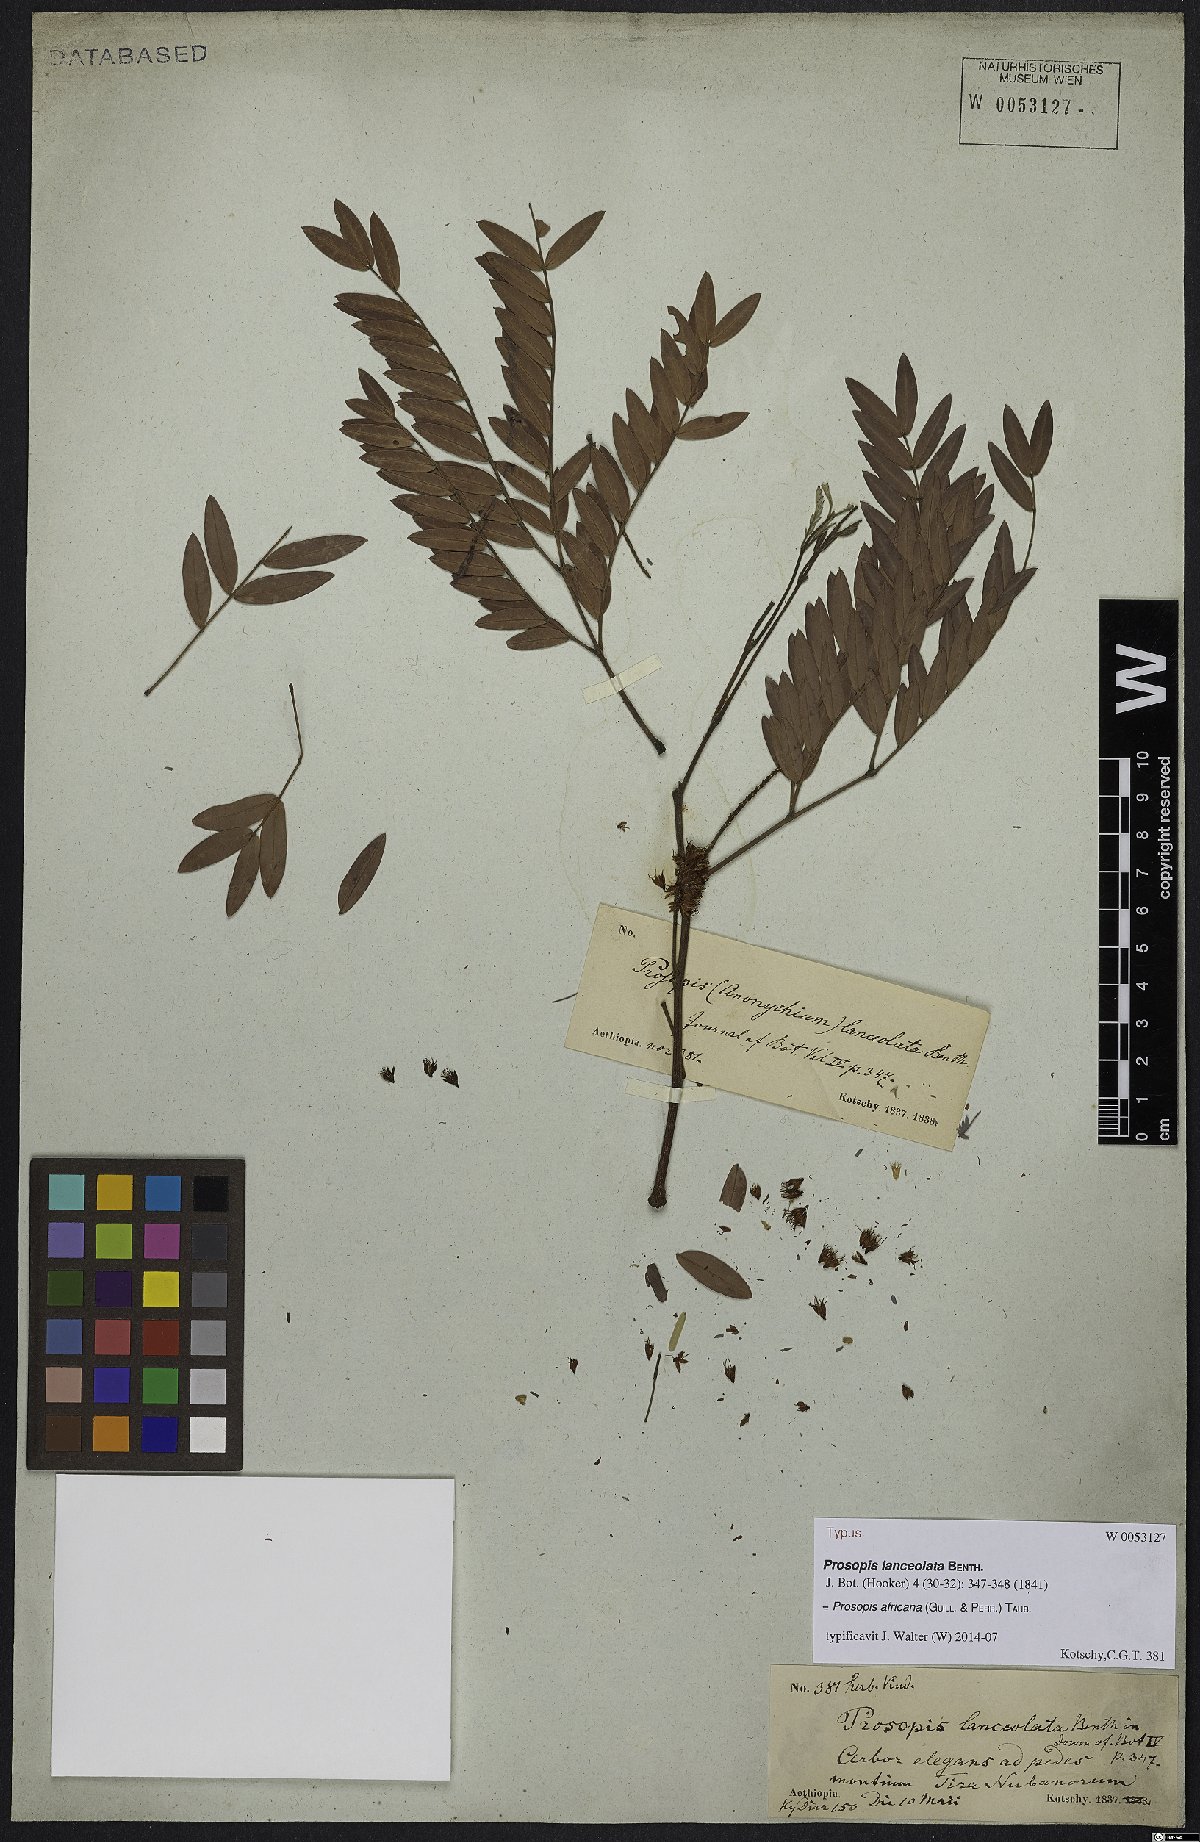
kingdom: Plantae
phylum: Tracheophyta
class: Magnoliopsida
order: Fabales
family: Fabaceae
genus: Prosopis
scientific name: Prosopis africana
